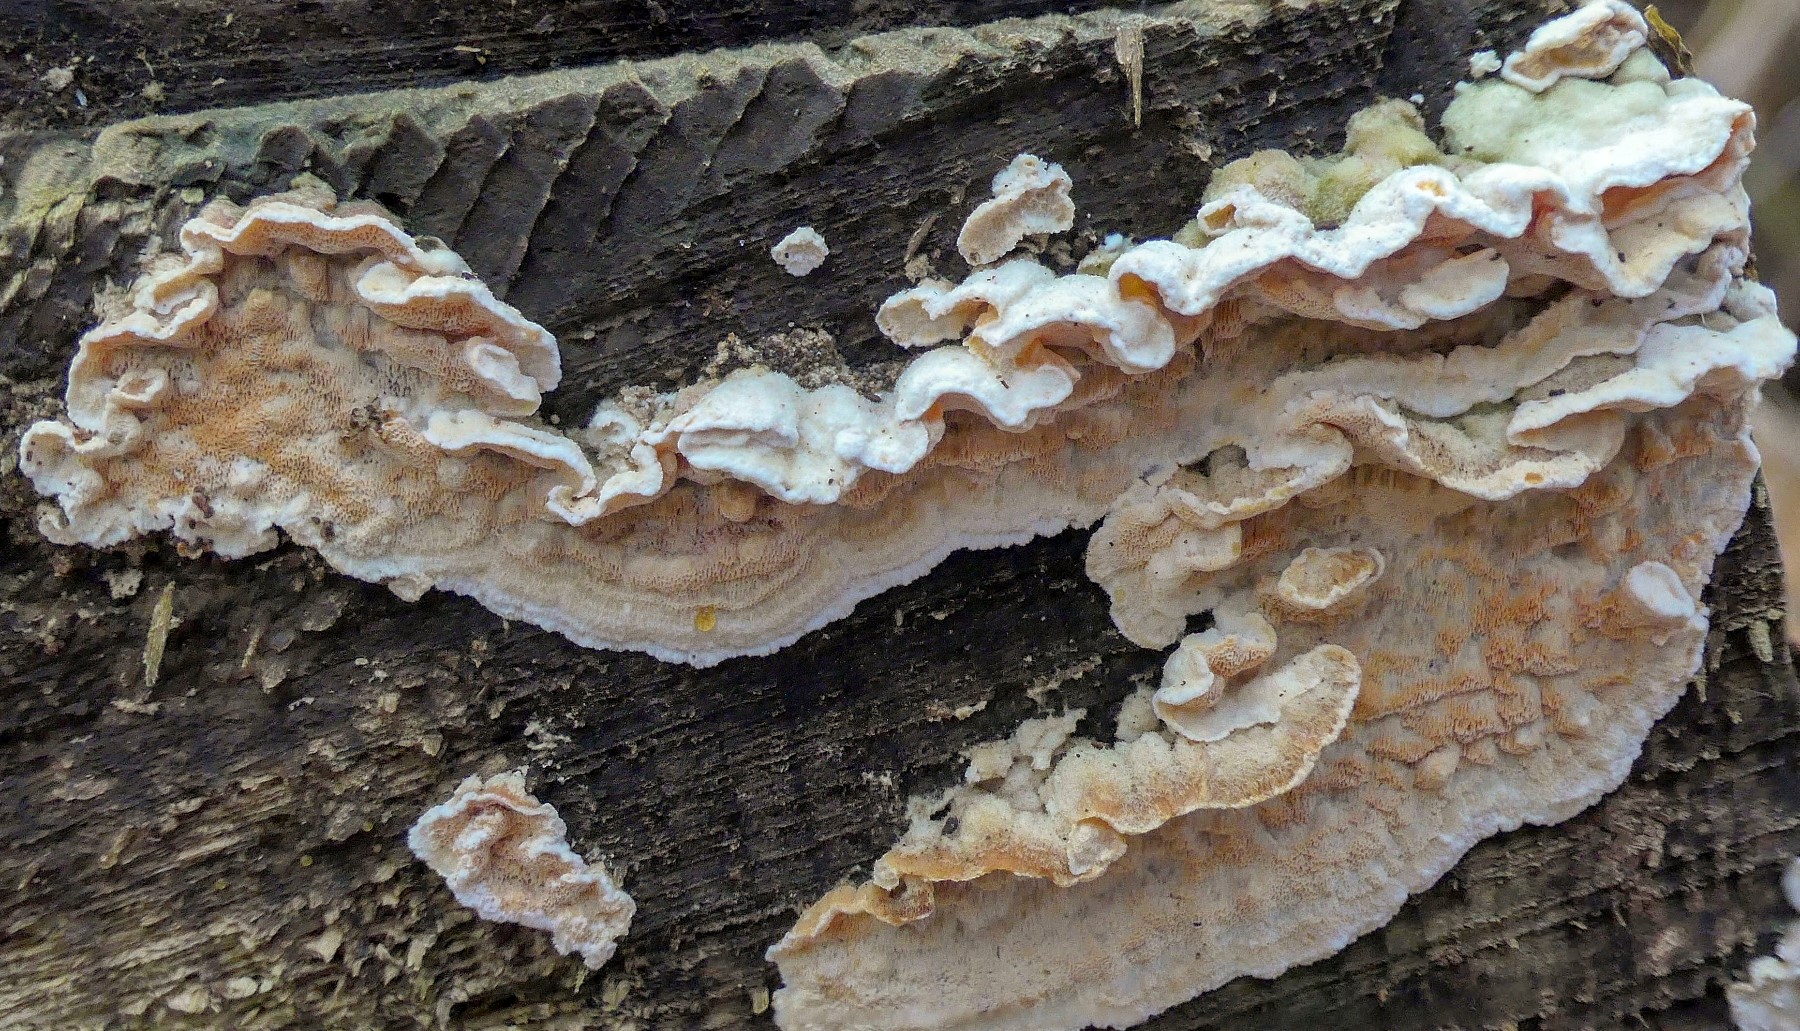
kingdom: Fungi
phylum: Basidiomycota
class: Agaricomycetes
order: Polyporales
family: Incrustoporiaceae
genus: Skeletocutis
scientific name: Skeletocutis amorpha
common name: orange krystalporesvamp
